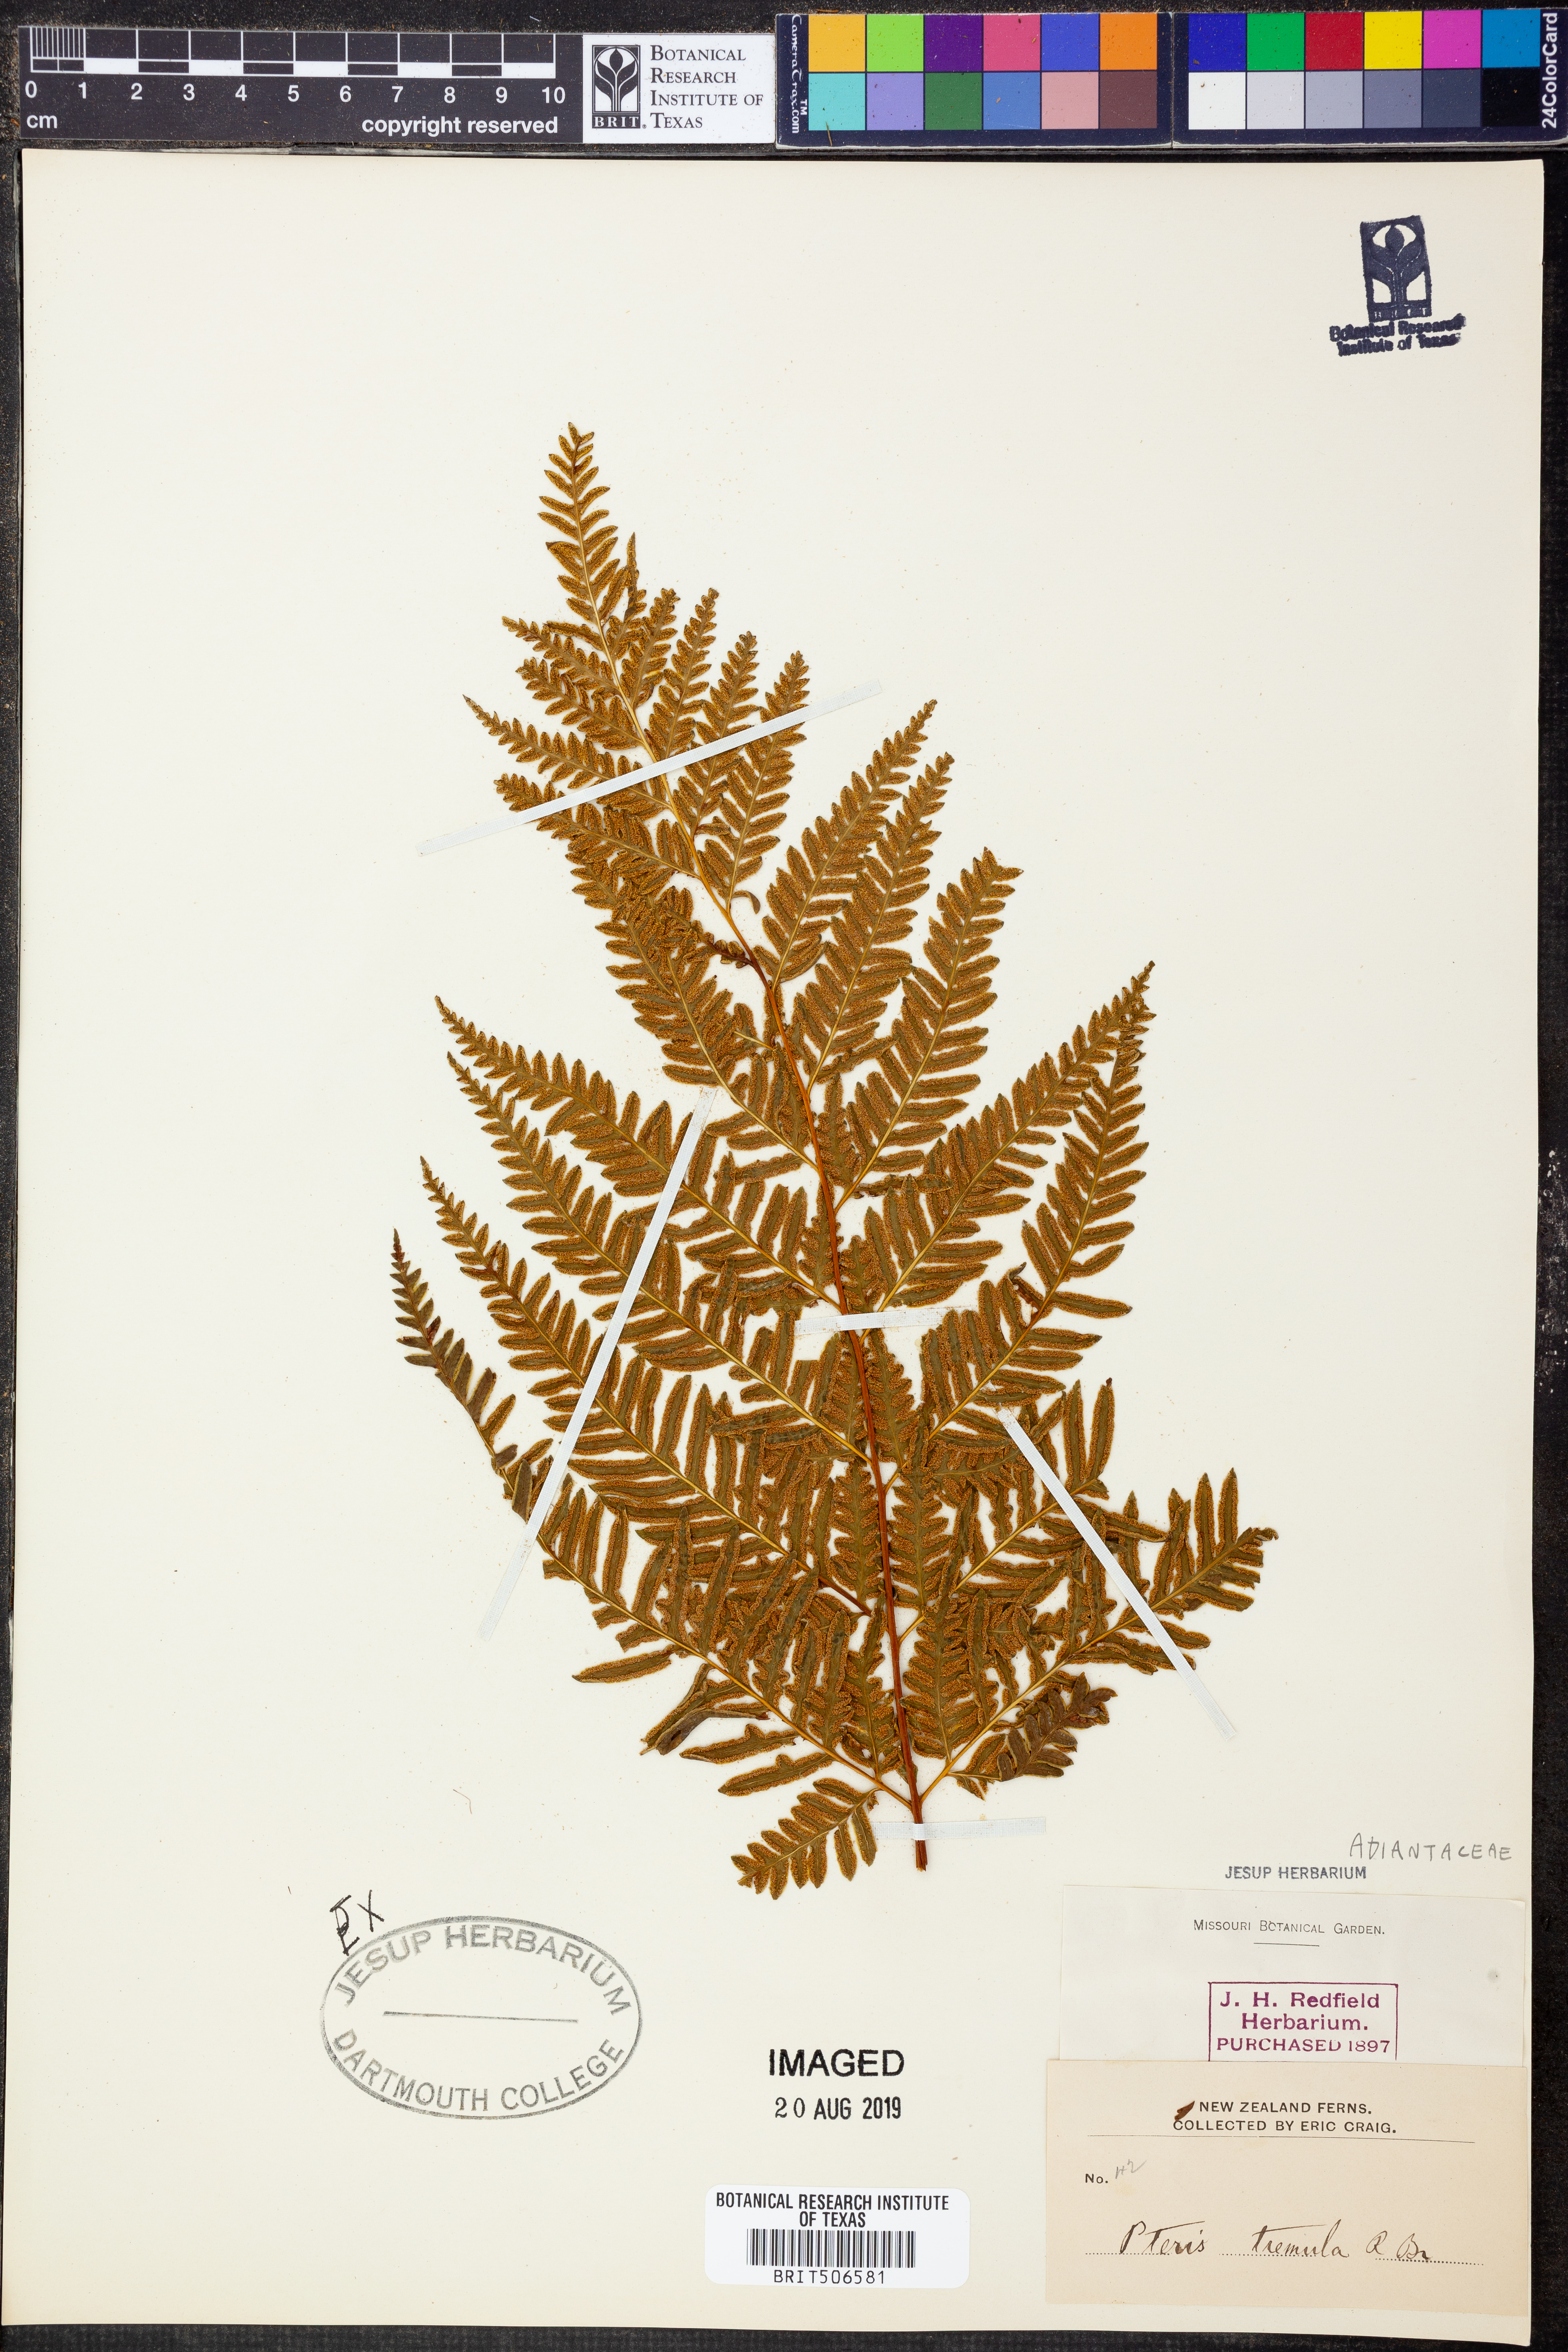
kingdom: Plantae
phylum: Tracheophyta
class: Polypodiopsida
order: Polypodiales
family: Pteridaceae
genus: Pteris
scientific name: Pteris tremula
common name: Australian brake
